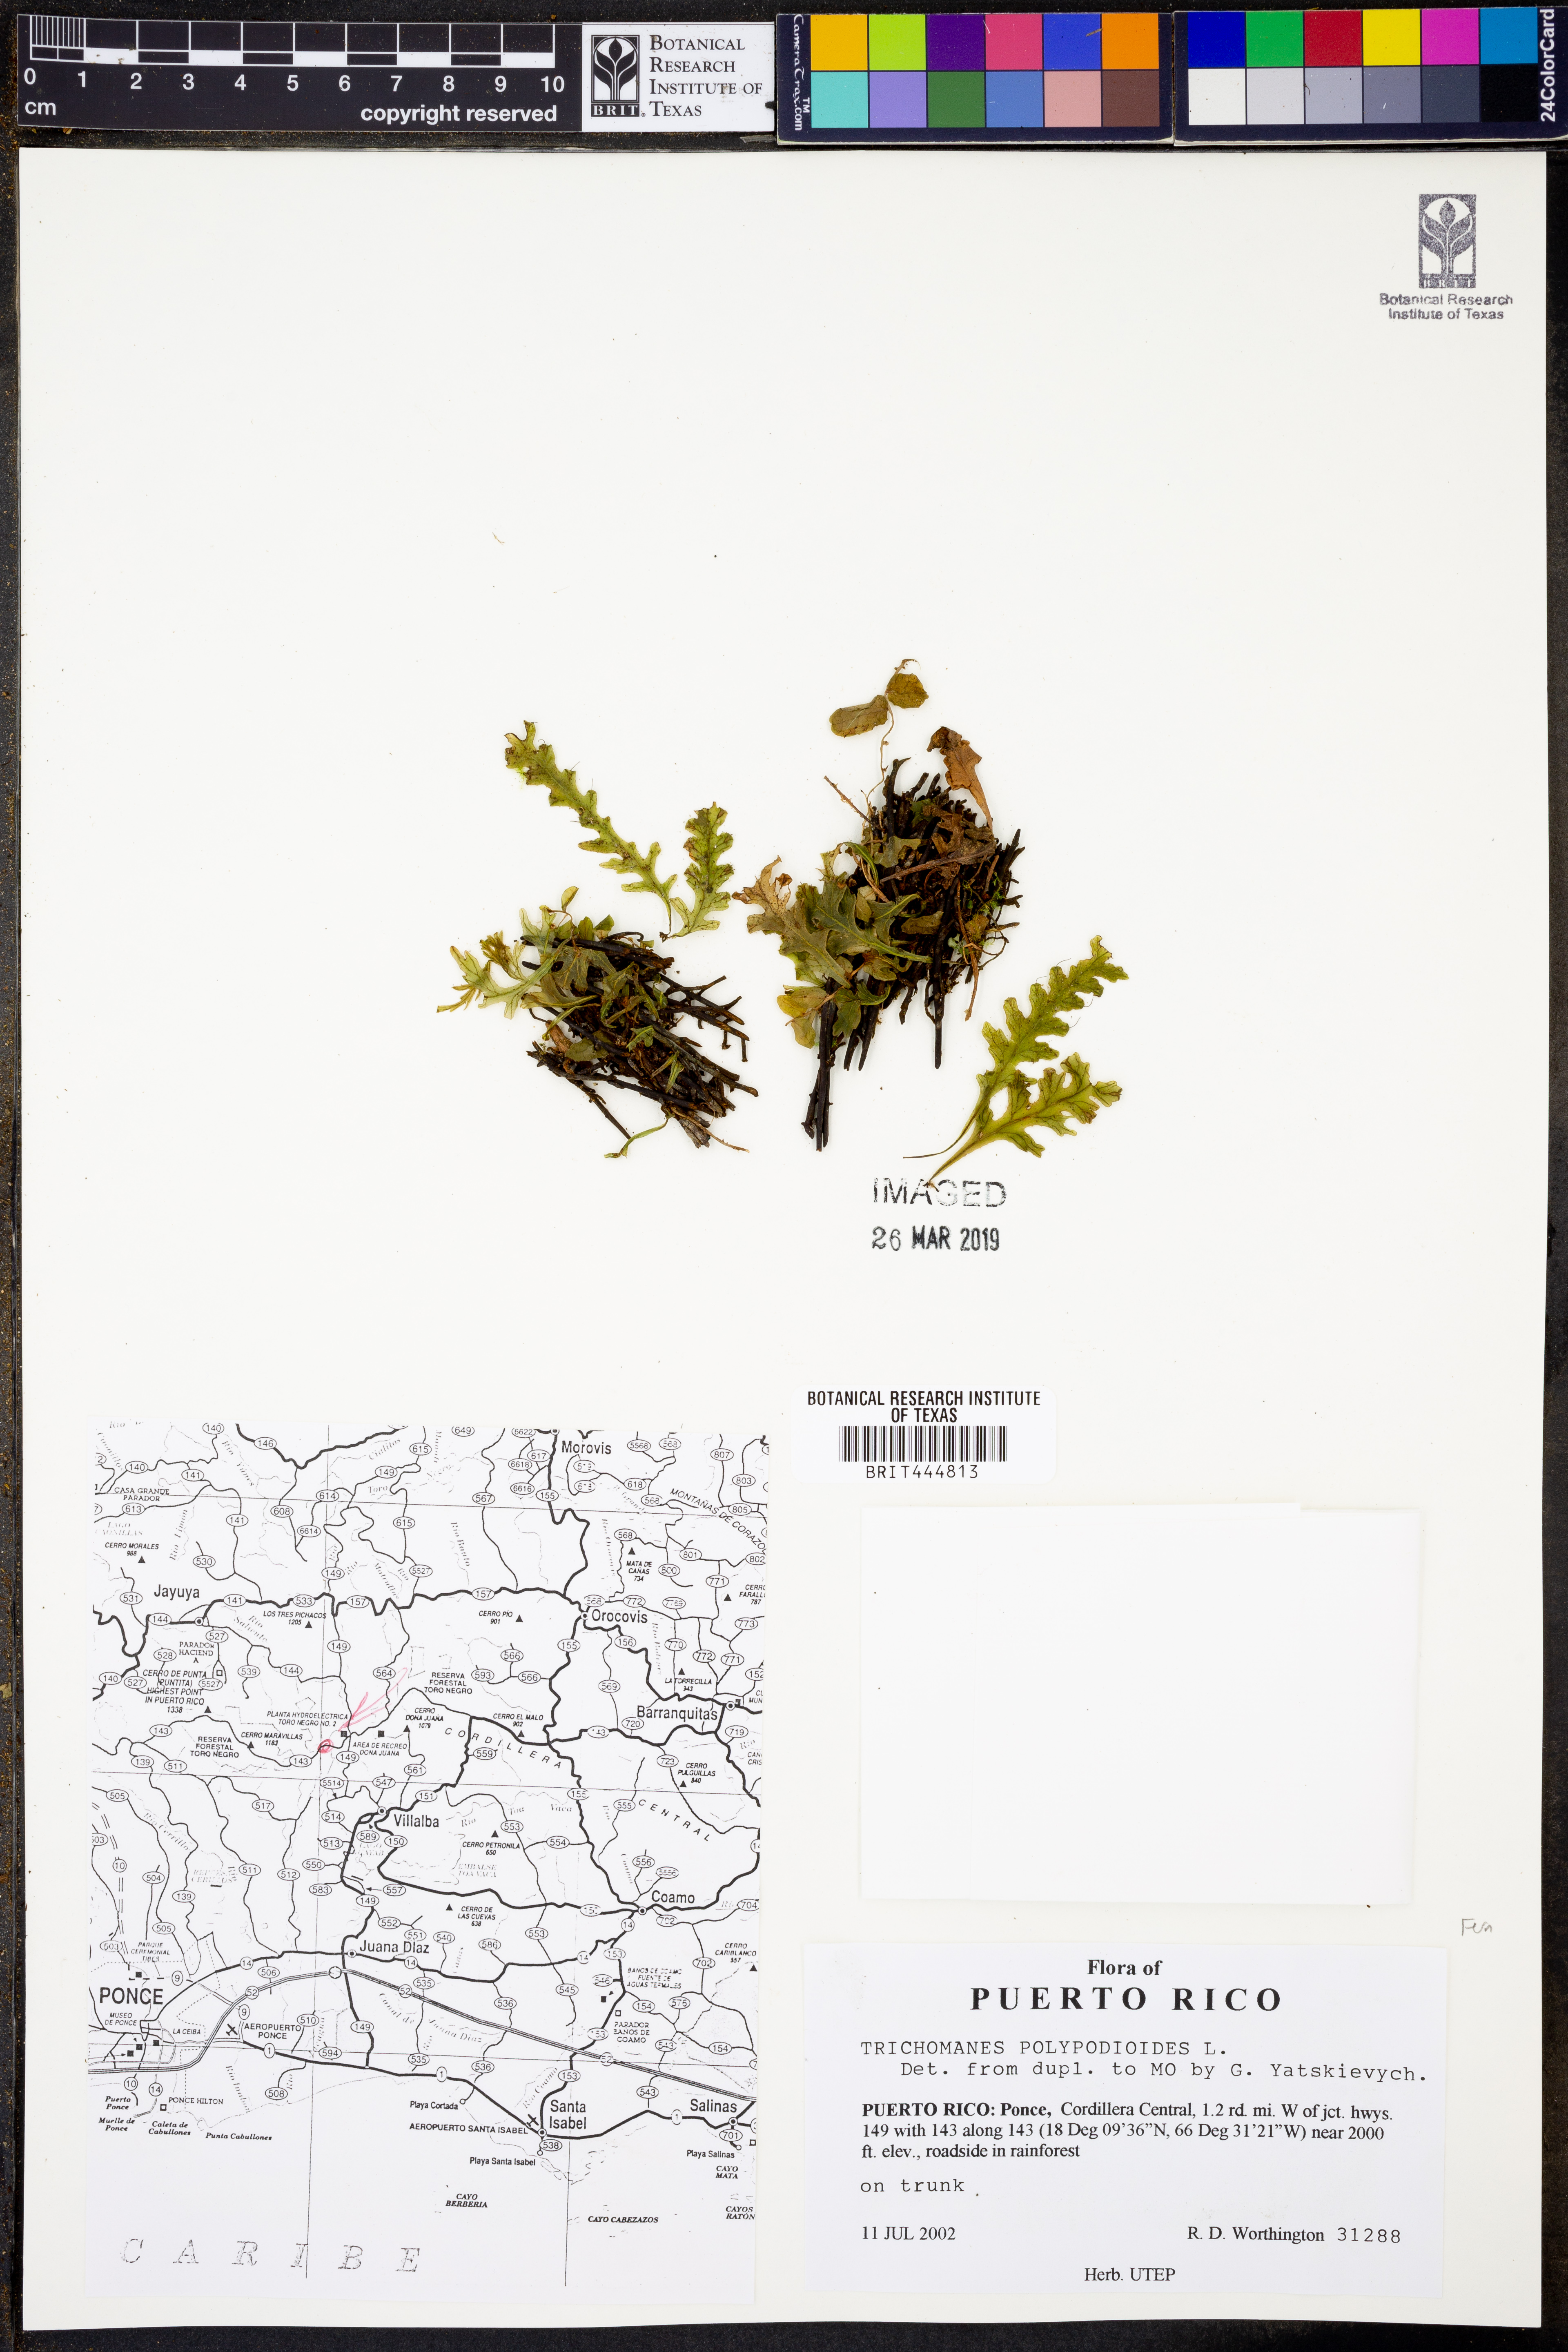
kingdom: Plantae
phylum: Tracheophyta
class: Polypodiopsida
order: Hymenophyllales
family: Hymenophyllaceae
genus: Trichomanes
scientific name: Trichomanes polypodioides
